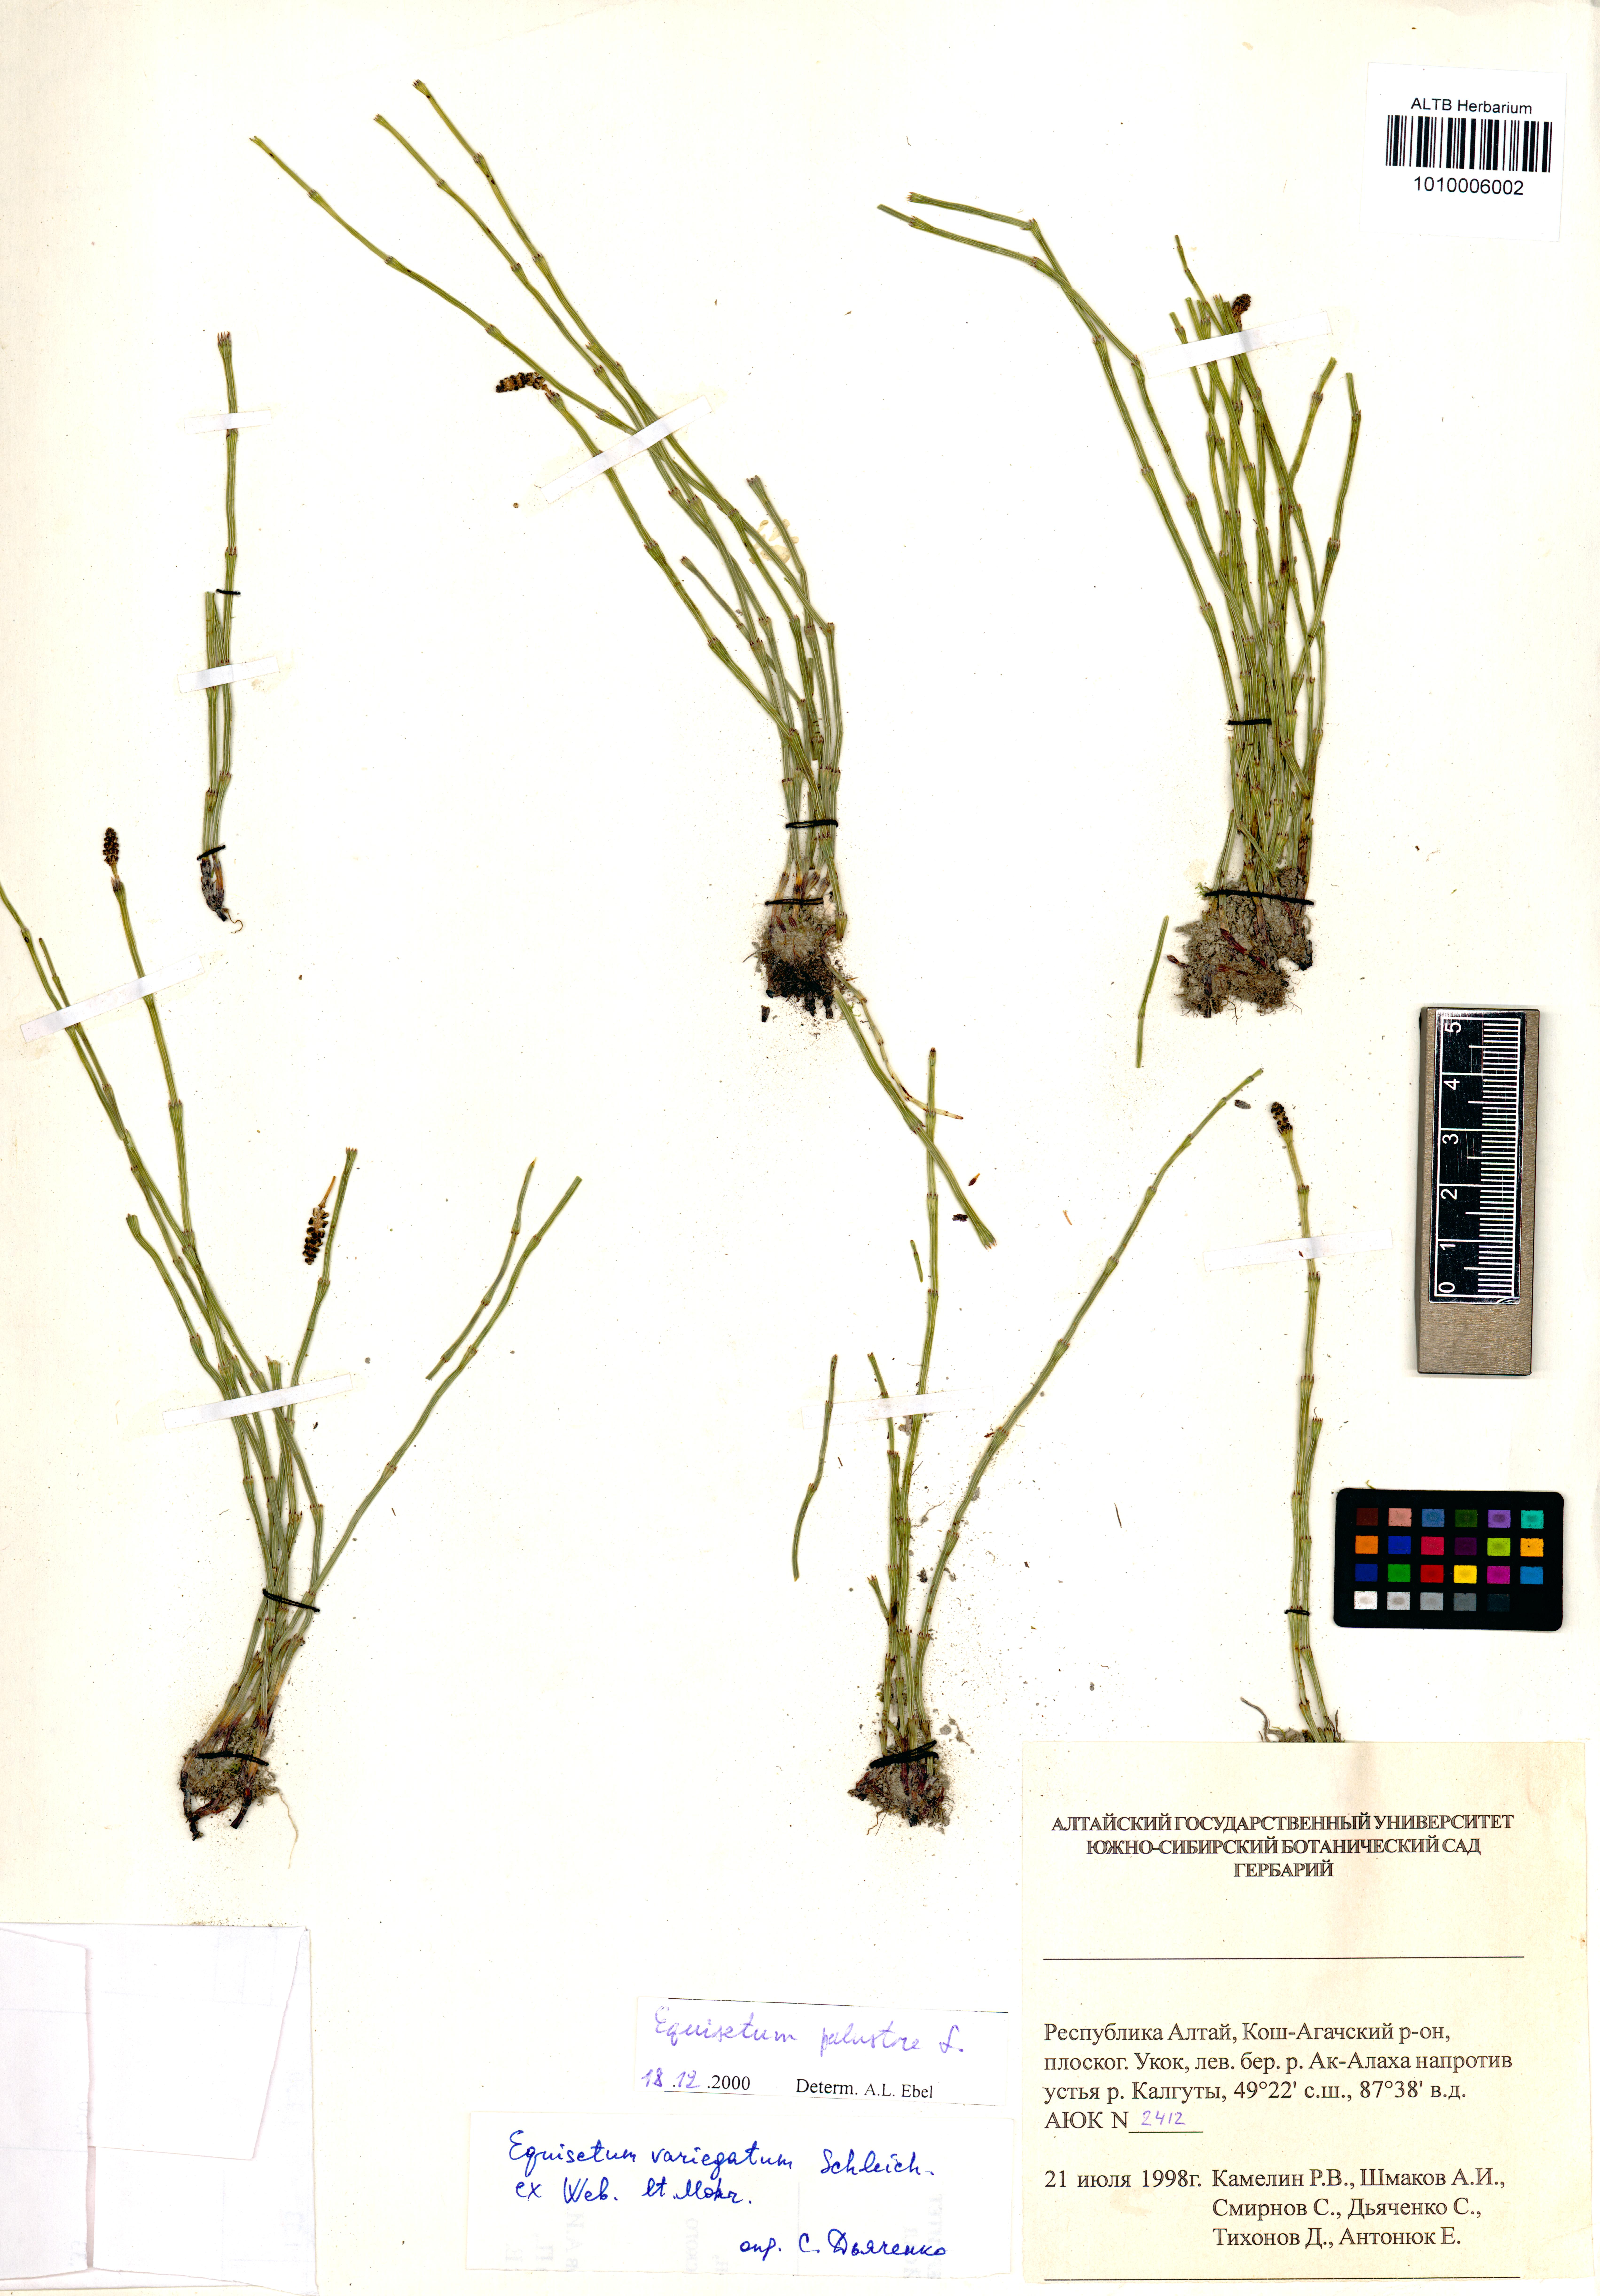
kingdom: Plantae
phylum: Tracheophyta
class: Polypodiopsida
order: Equisetales
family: Equisetaceae
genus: Equisetum
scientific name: Equisetum palustre
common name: Marsh horsetail
